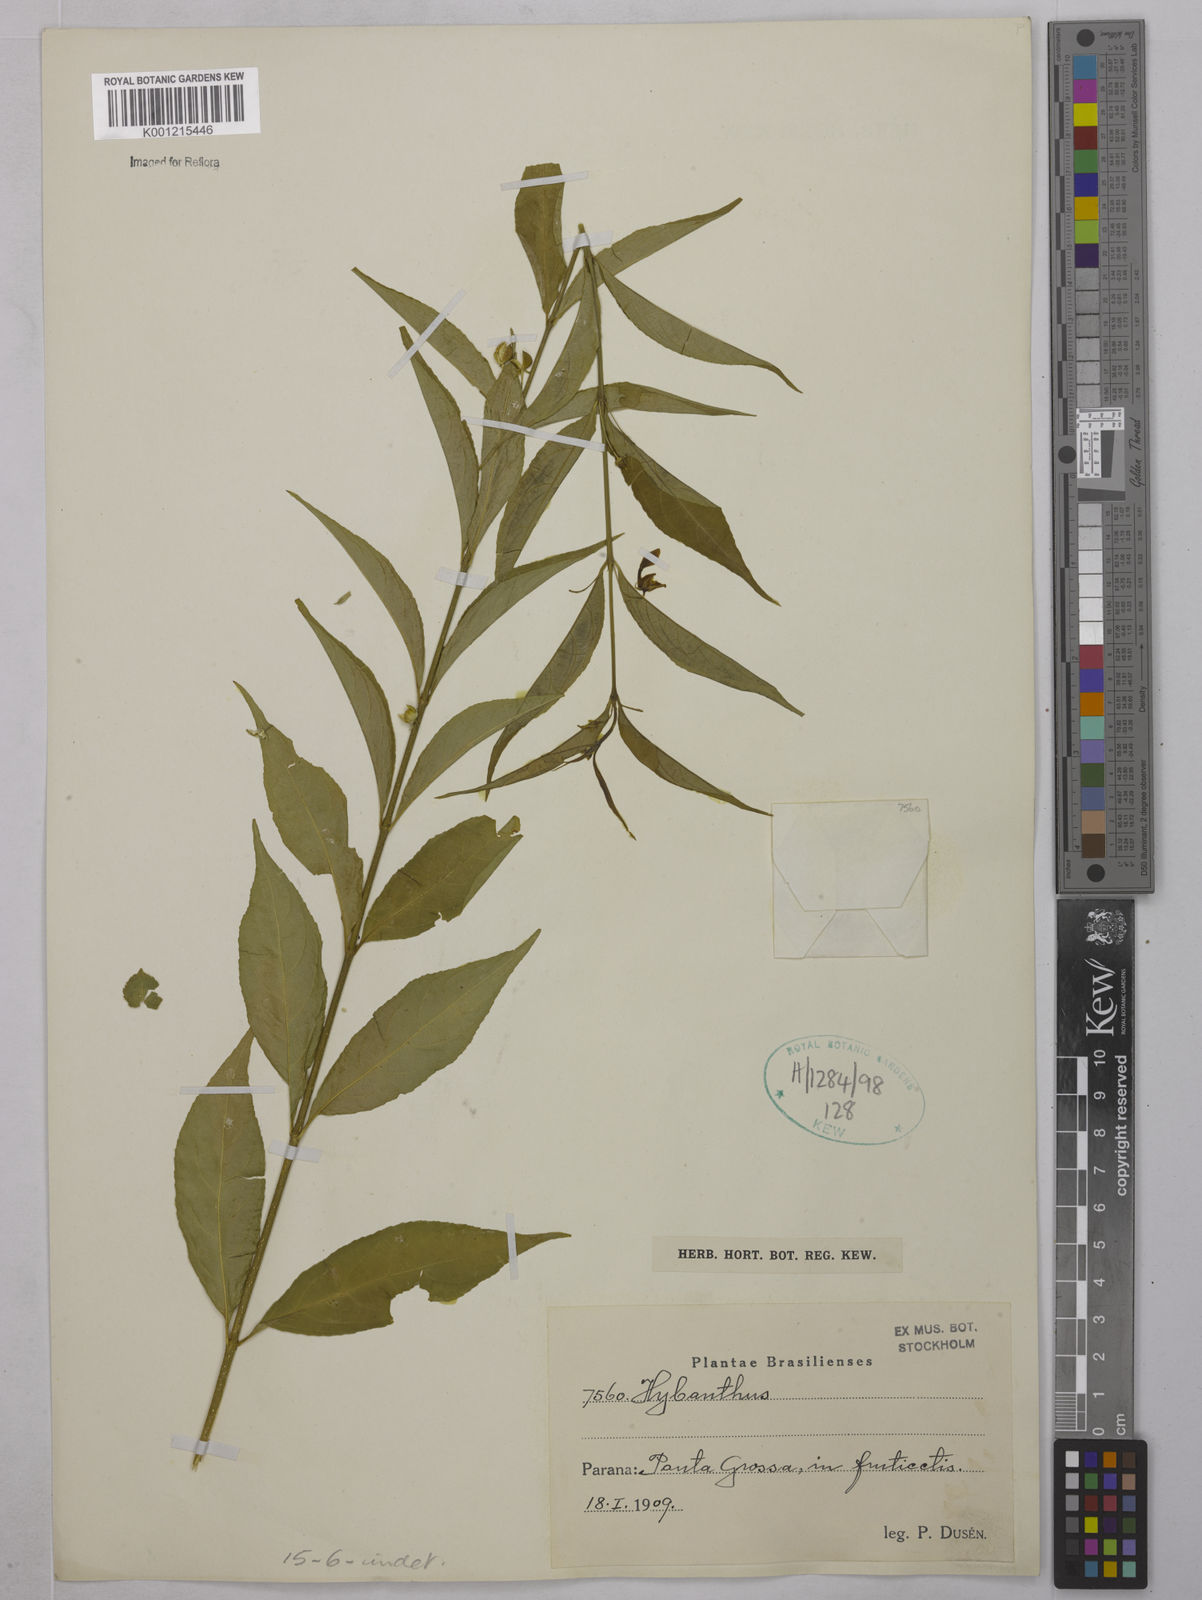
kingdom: Plantae
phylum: Tracheophyta
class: Magnoliopsida
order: Malpighiales
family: Violaceae
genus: Hybanthus
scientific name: Hybanthus
